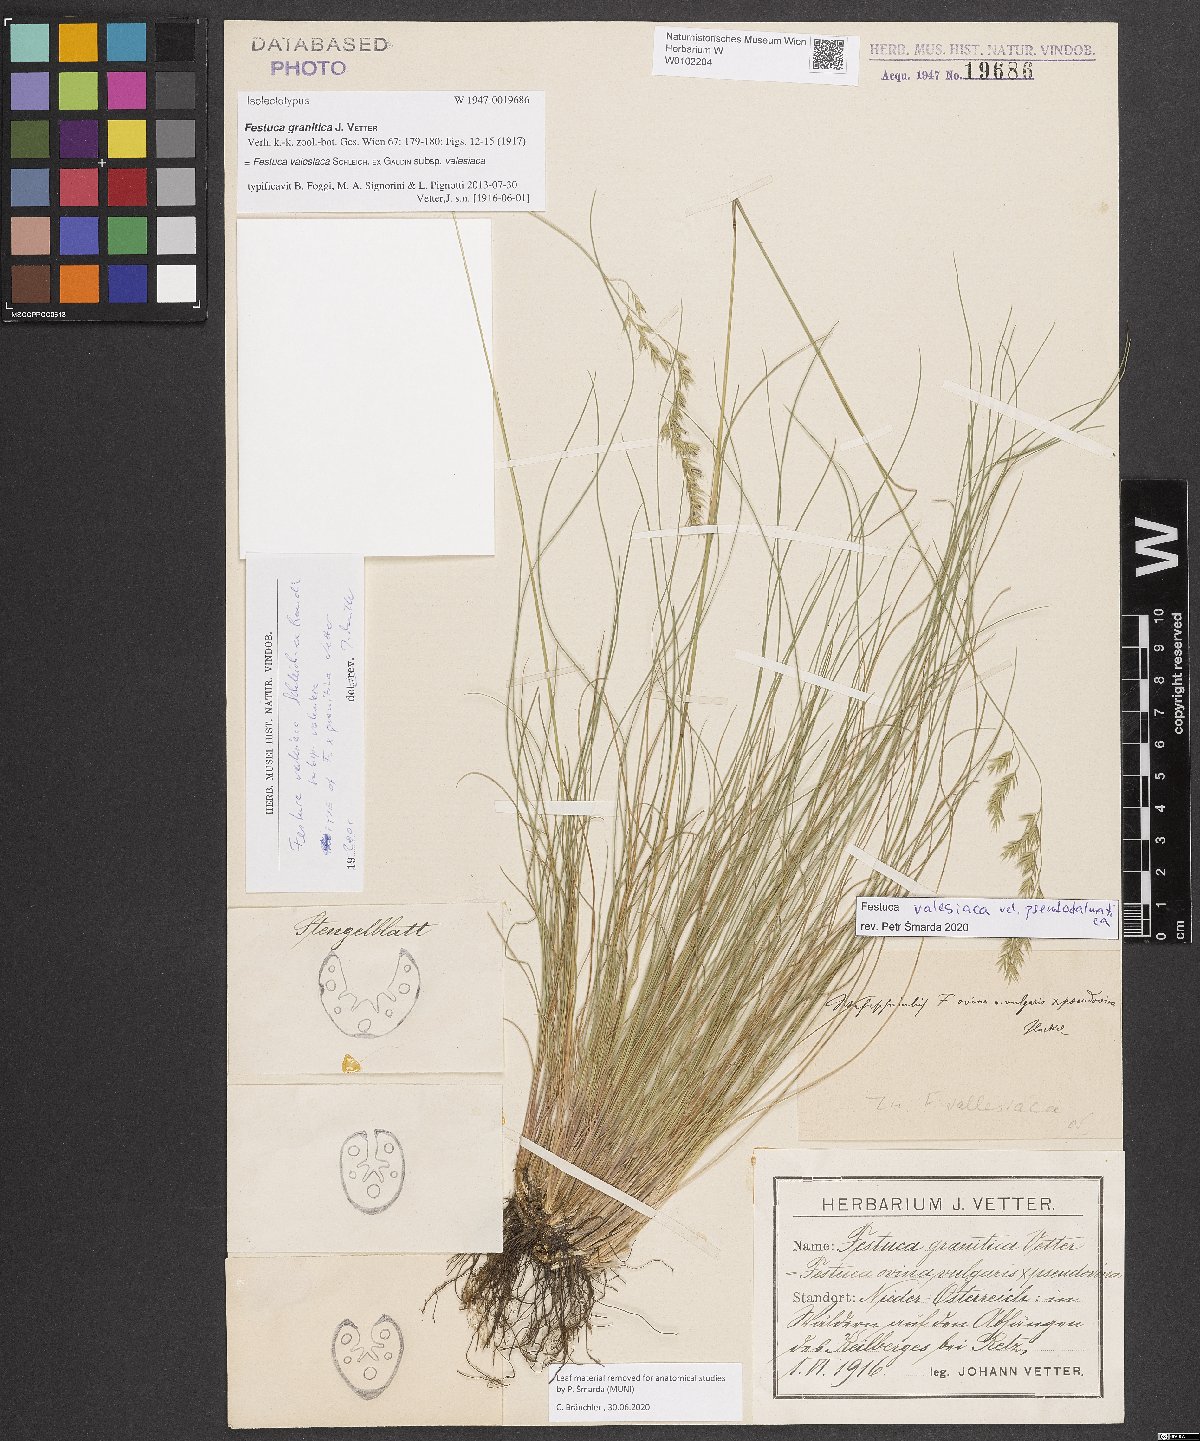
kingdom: Plantae
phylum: Tracheophyta
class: Liliopsida
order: Poales
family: Poaceae
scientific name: Poaceae
